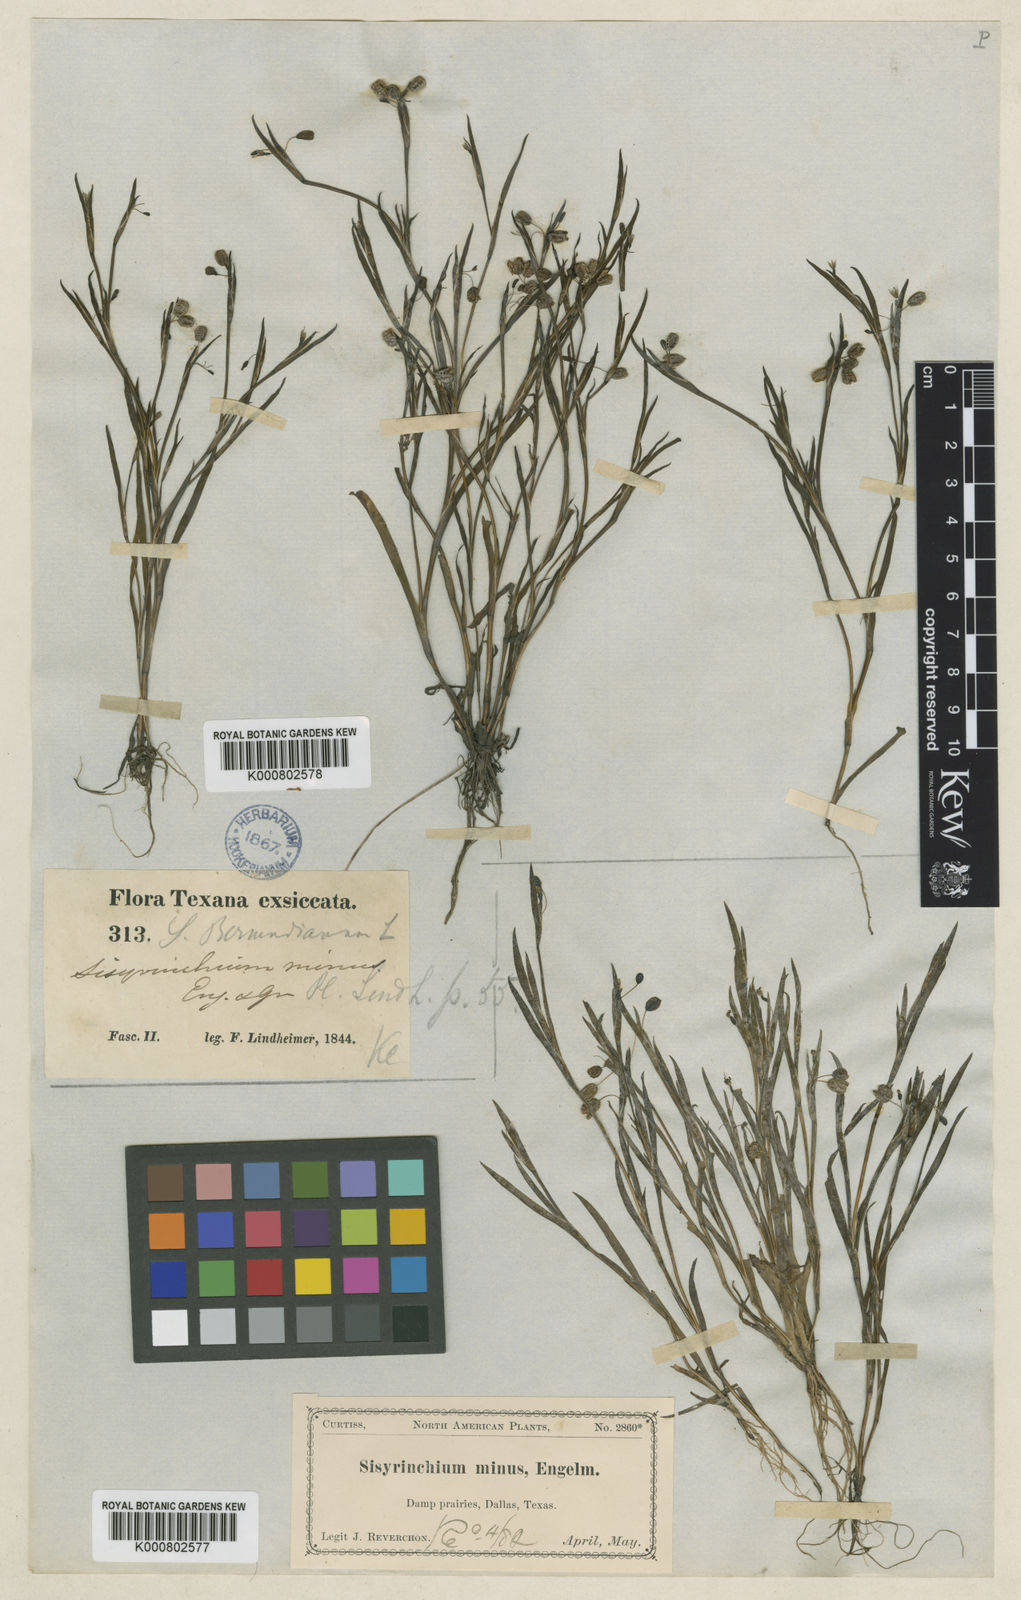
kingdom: Plantae
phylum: Tracheophyta
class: Liliopsida
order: Asparagales
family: Iridaceae
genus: Sisyrinchium
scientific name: Sisyrinchium minus
